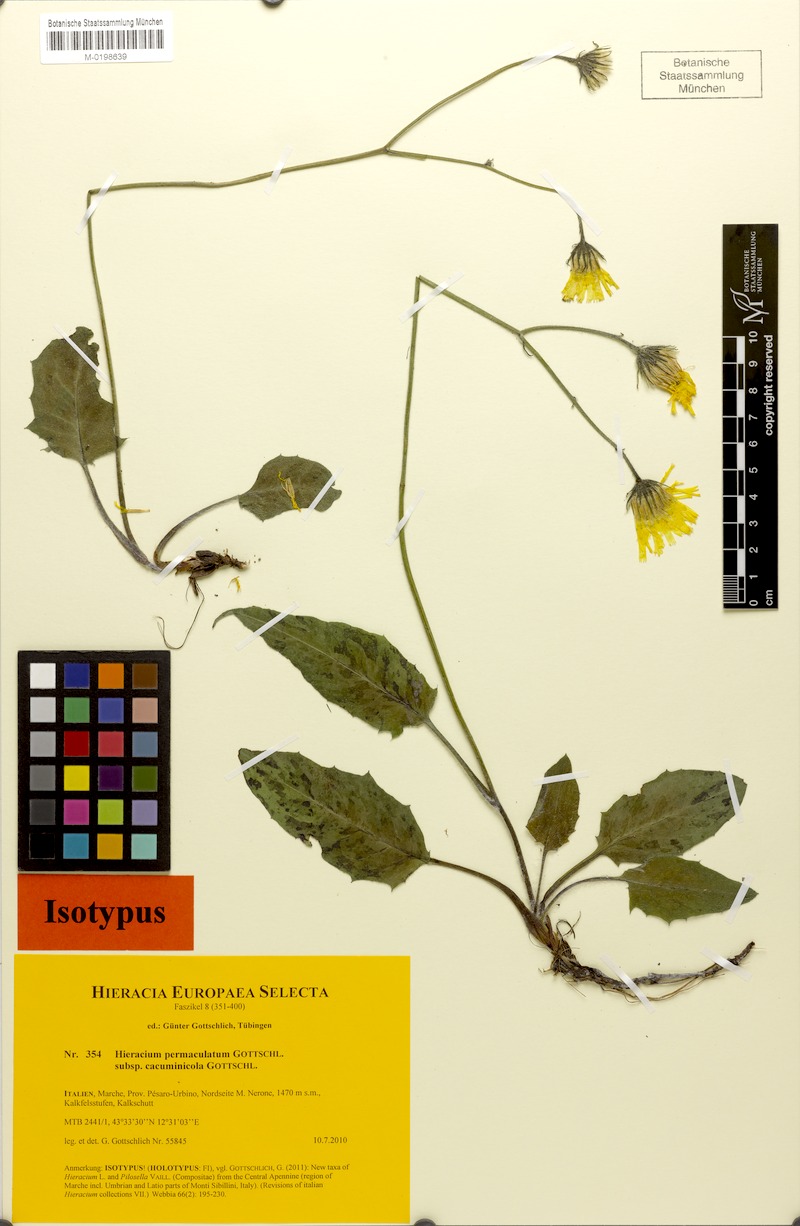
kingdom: Plantae
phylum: Tracheophyta
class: Magnoliopsida
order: Asterales
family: Asteraceae
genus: Hieracium
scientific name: Hieracium permaculatum
